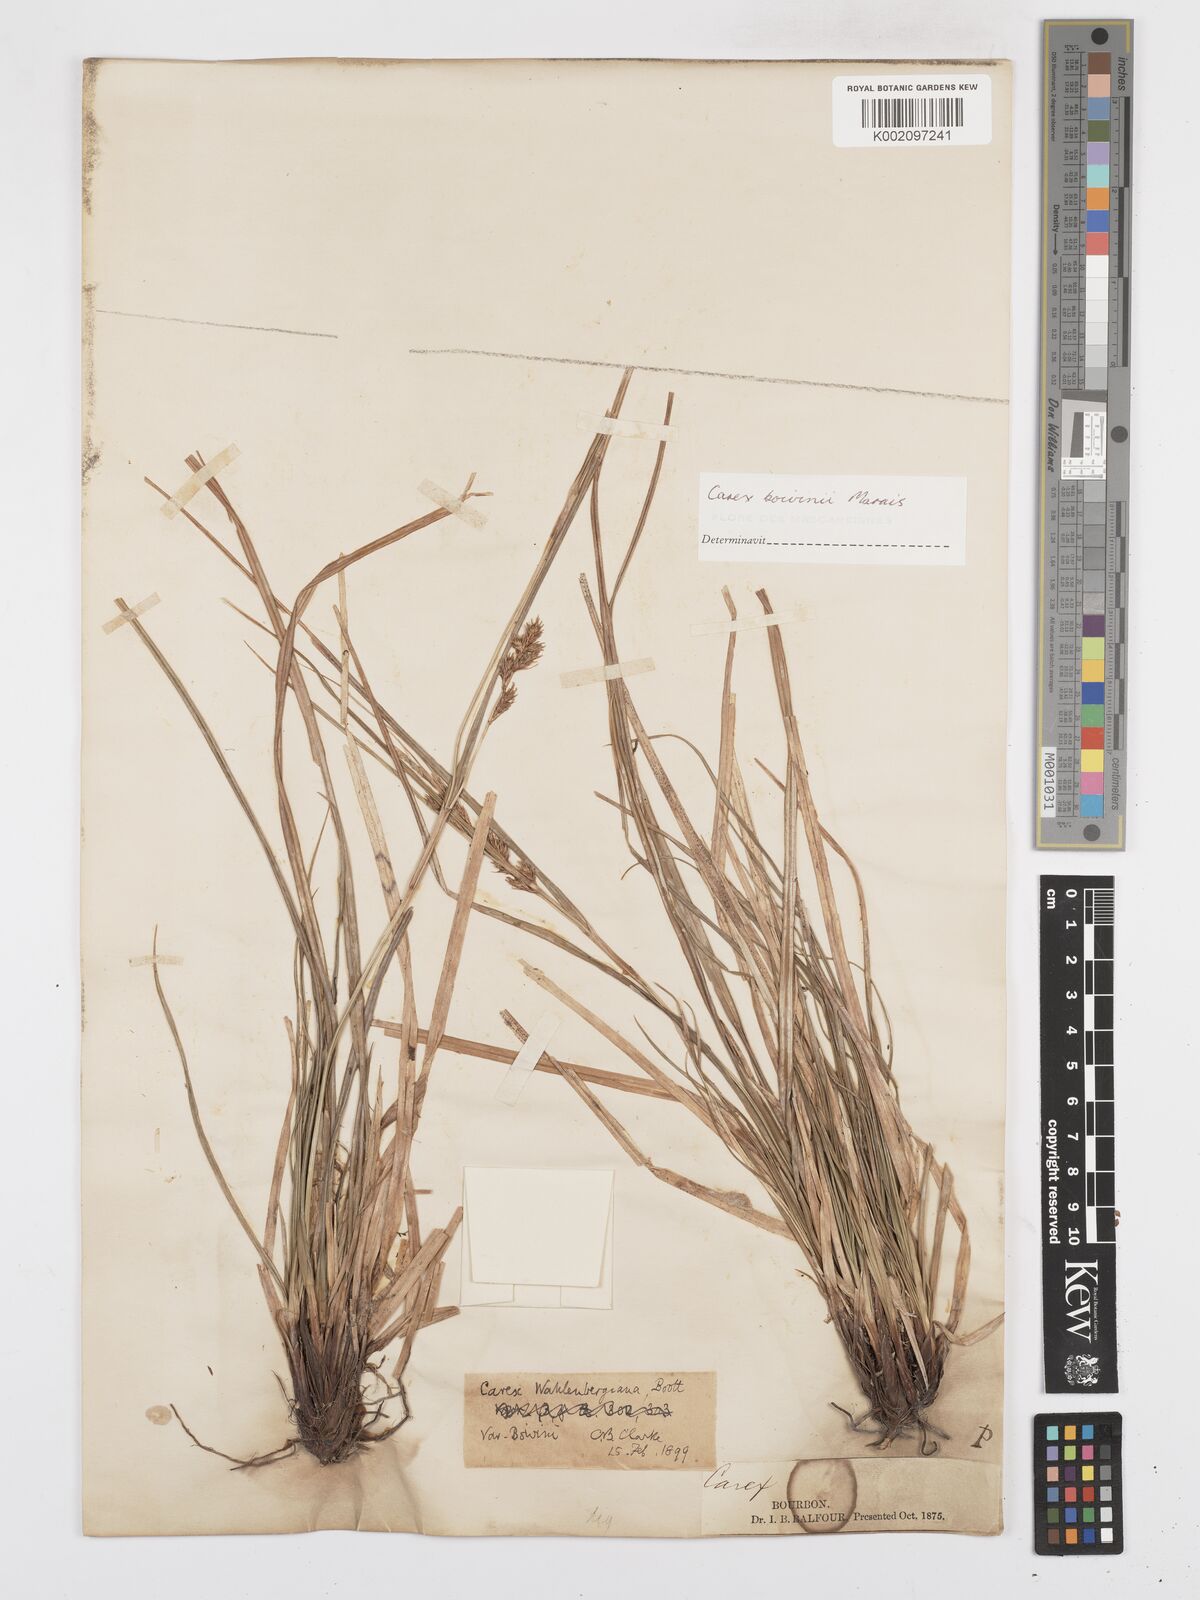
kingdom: Plantae
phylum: Tracheophyta
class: Liliopsida
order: Poales
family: Cyperaceae
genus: Carex
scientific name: Carex wahlenbergiana
